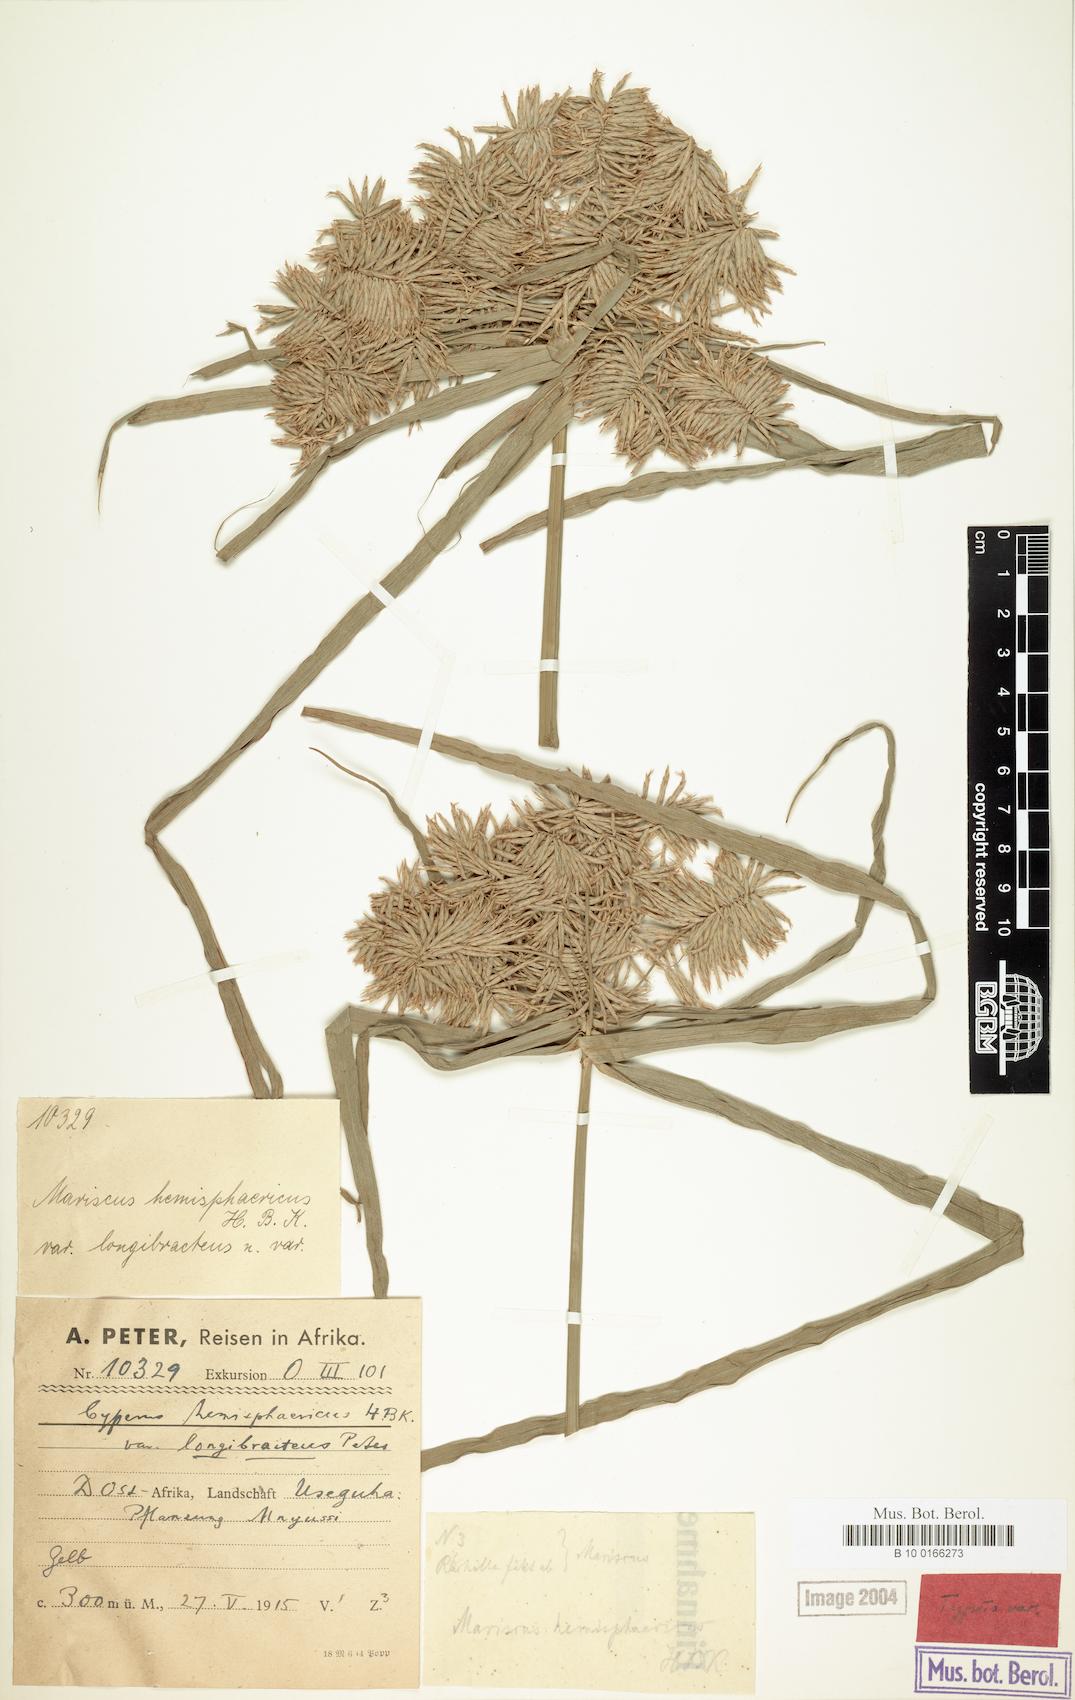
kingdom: Plantae
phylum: Tracheophyta
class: Liliopsida
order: Poales
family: Cyperaceae
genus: Cyperus
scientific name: Cyperus hemisphaericus
